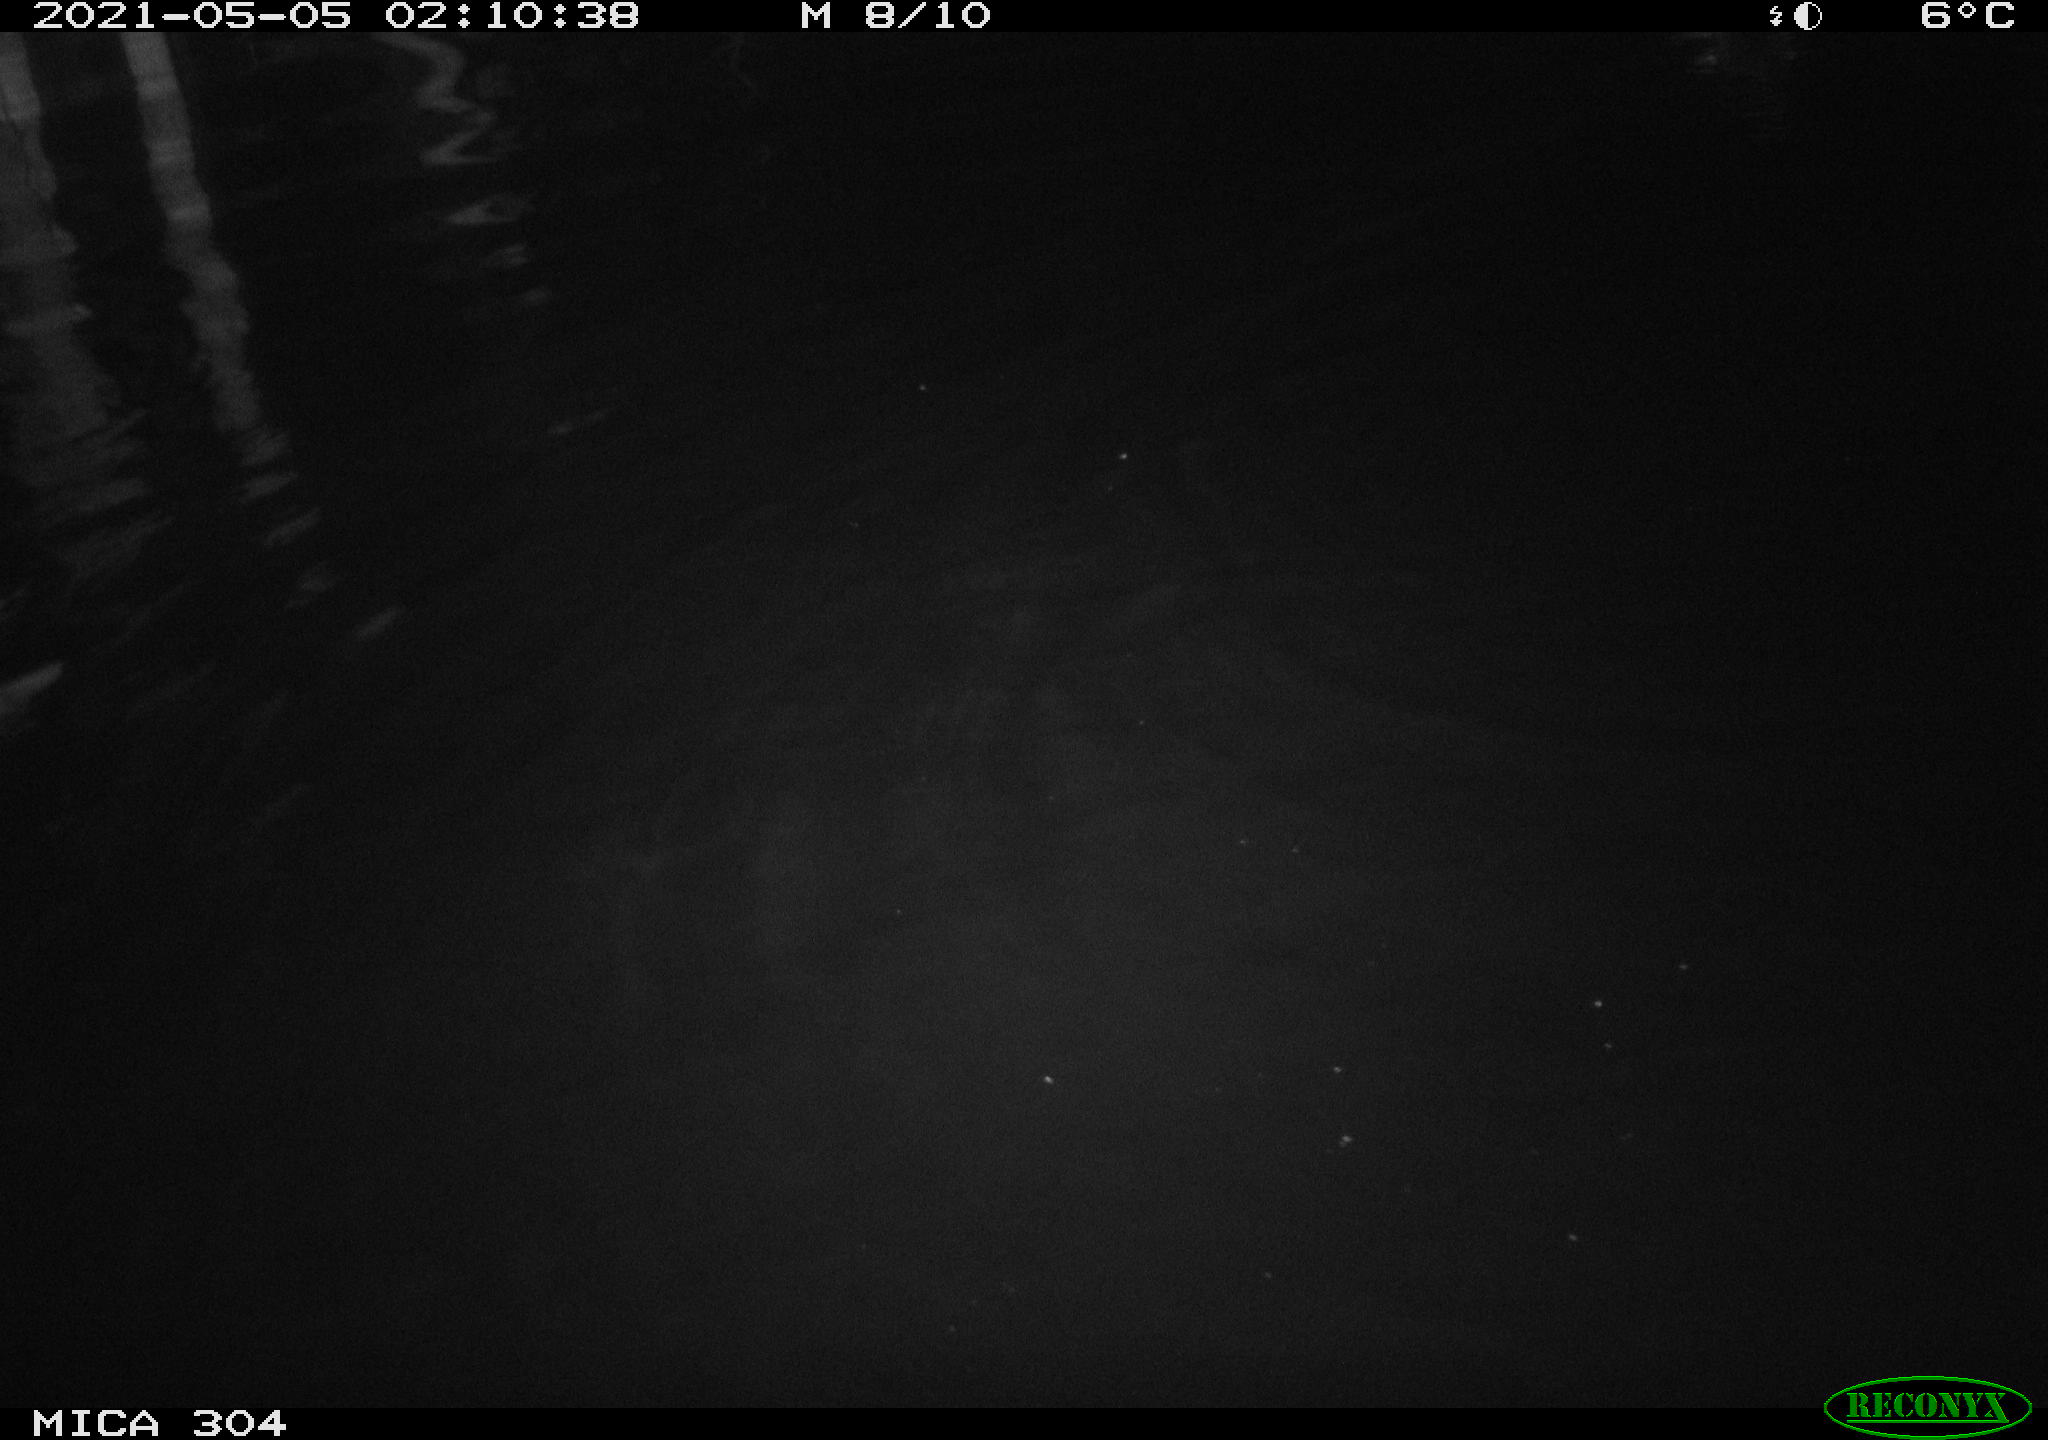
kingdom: Animalia
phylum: Chordata
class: Aves
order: Anseriformes
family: Anatidae
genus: Anas
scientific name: Anas platyrhynchos
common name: Mallard
